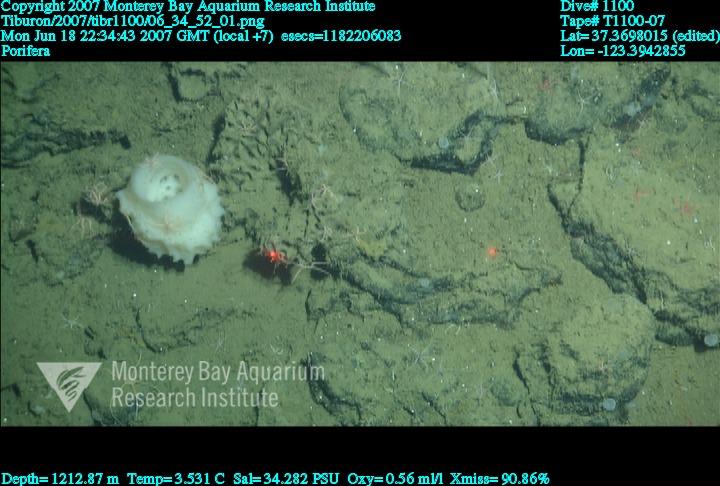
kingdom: Animalia
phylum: Porifera
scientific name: Porifera
